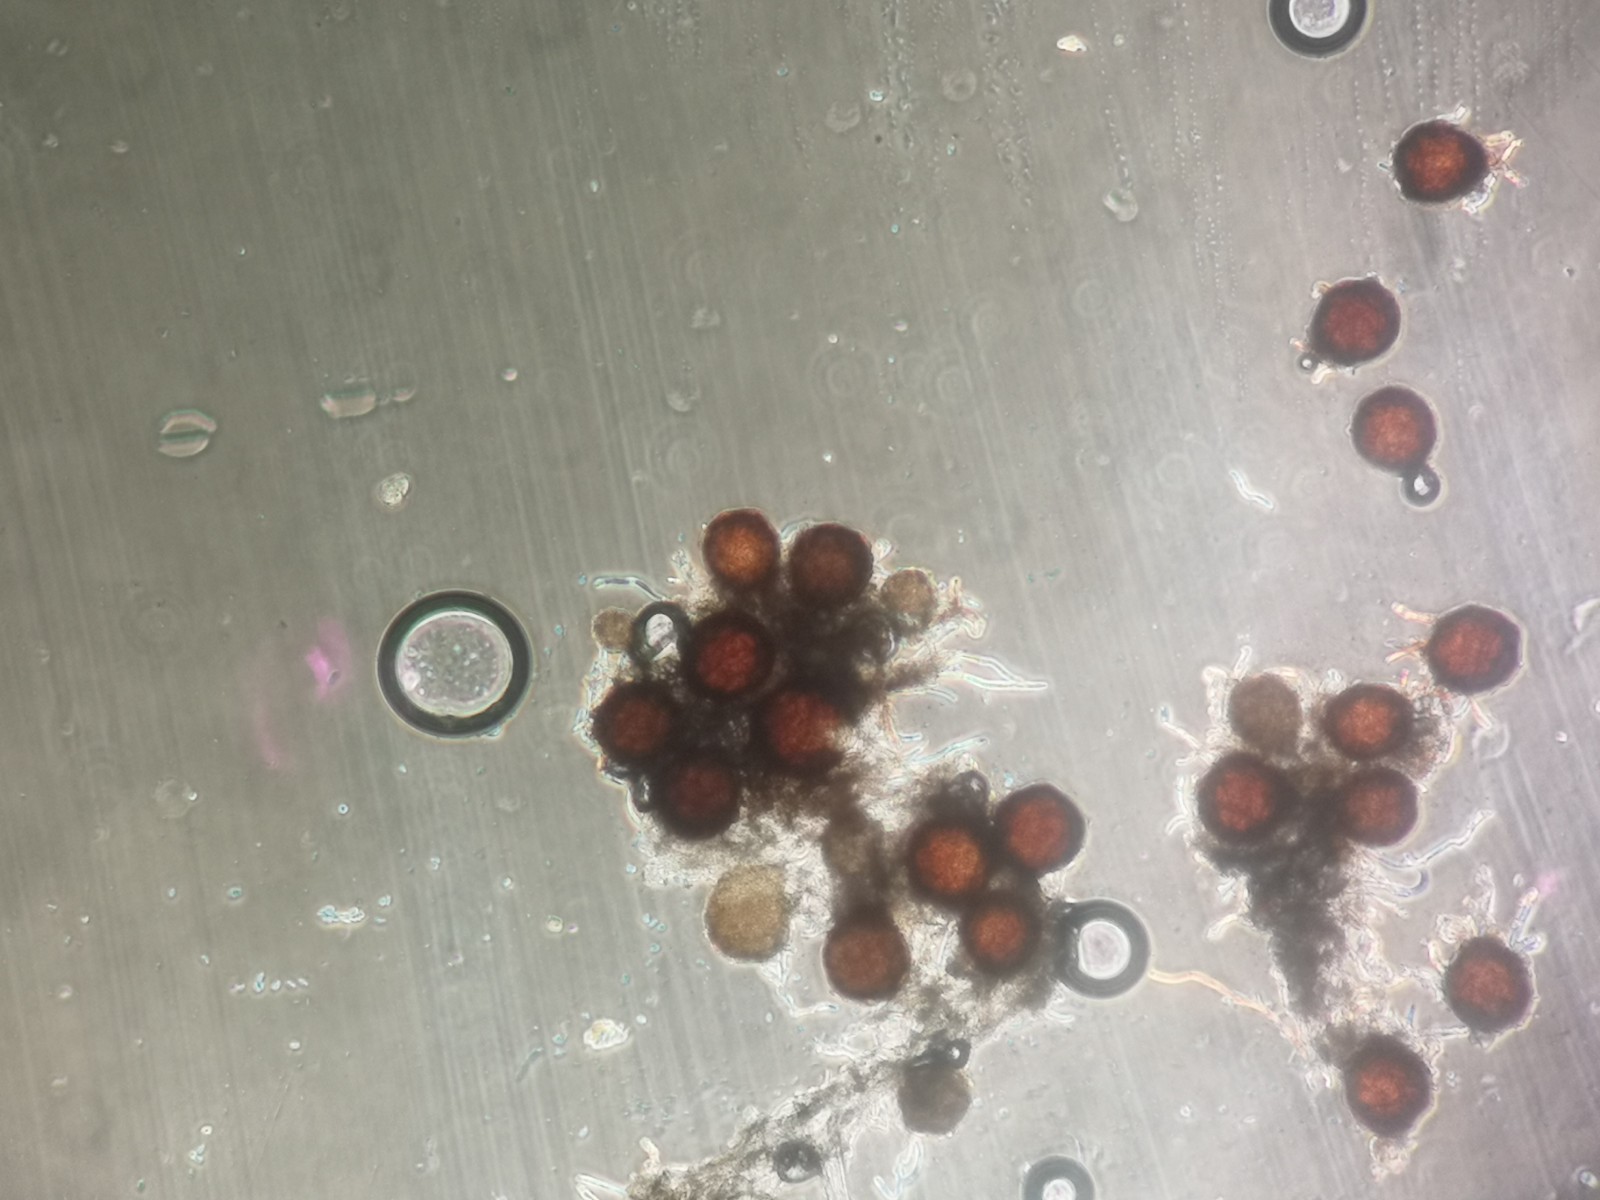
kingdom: Fungi
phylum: Ascomycota
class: Leotiomycetes
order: Helotiales
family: Erysiphaceae
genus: Podosphaera
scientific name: Podosphaera phtheirospermi
